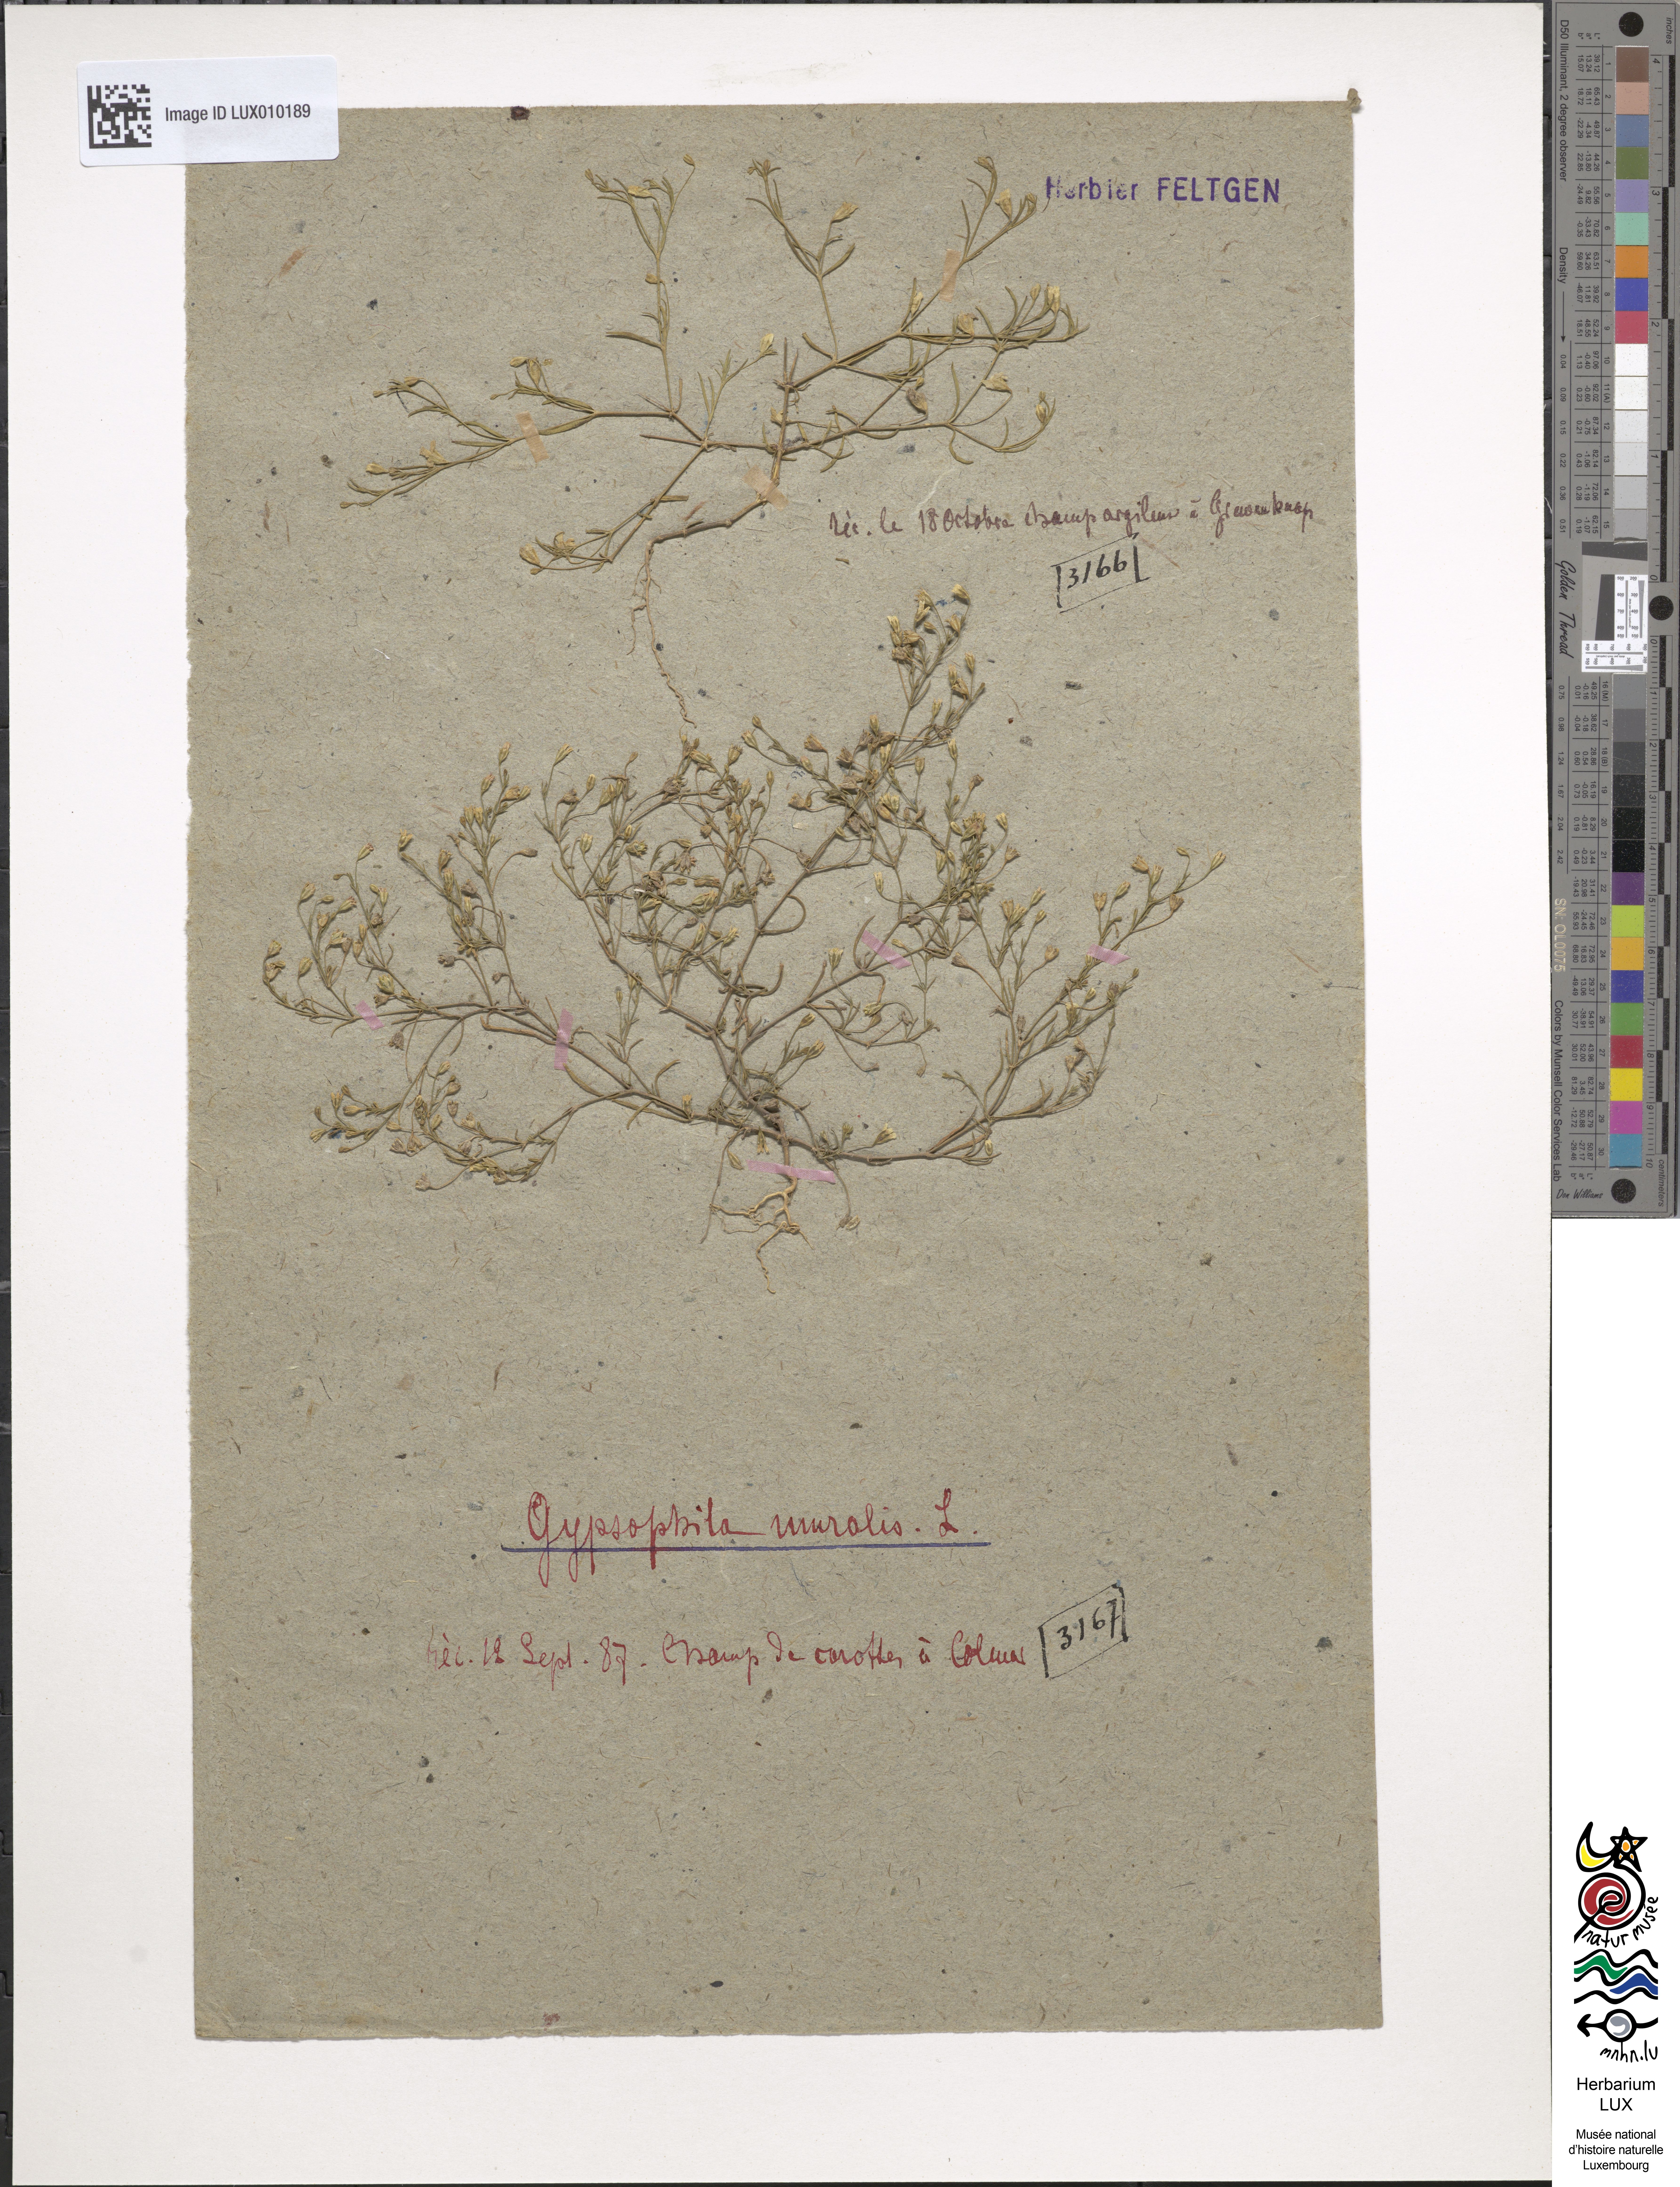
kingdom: Plantae
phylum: Tracheophyta
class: Magnoliopsida
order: Caryophyllales
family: Caryophyllaceae
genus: Psammophiliella
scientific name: Psammophiliella muralis
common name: Cushion baby's-breath
